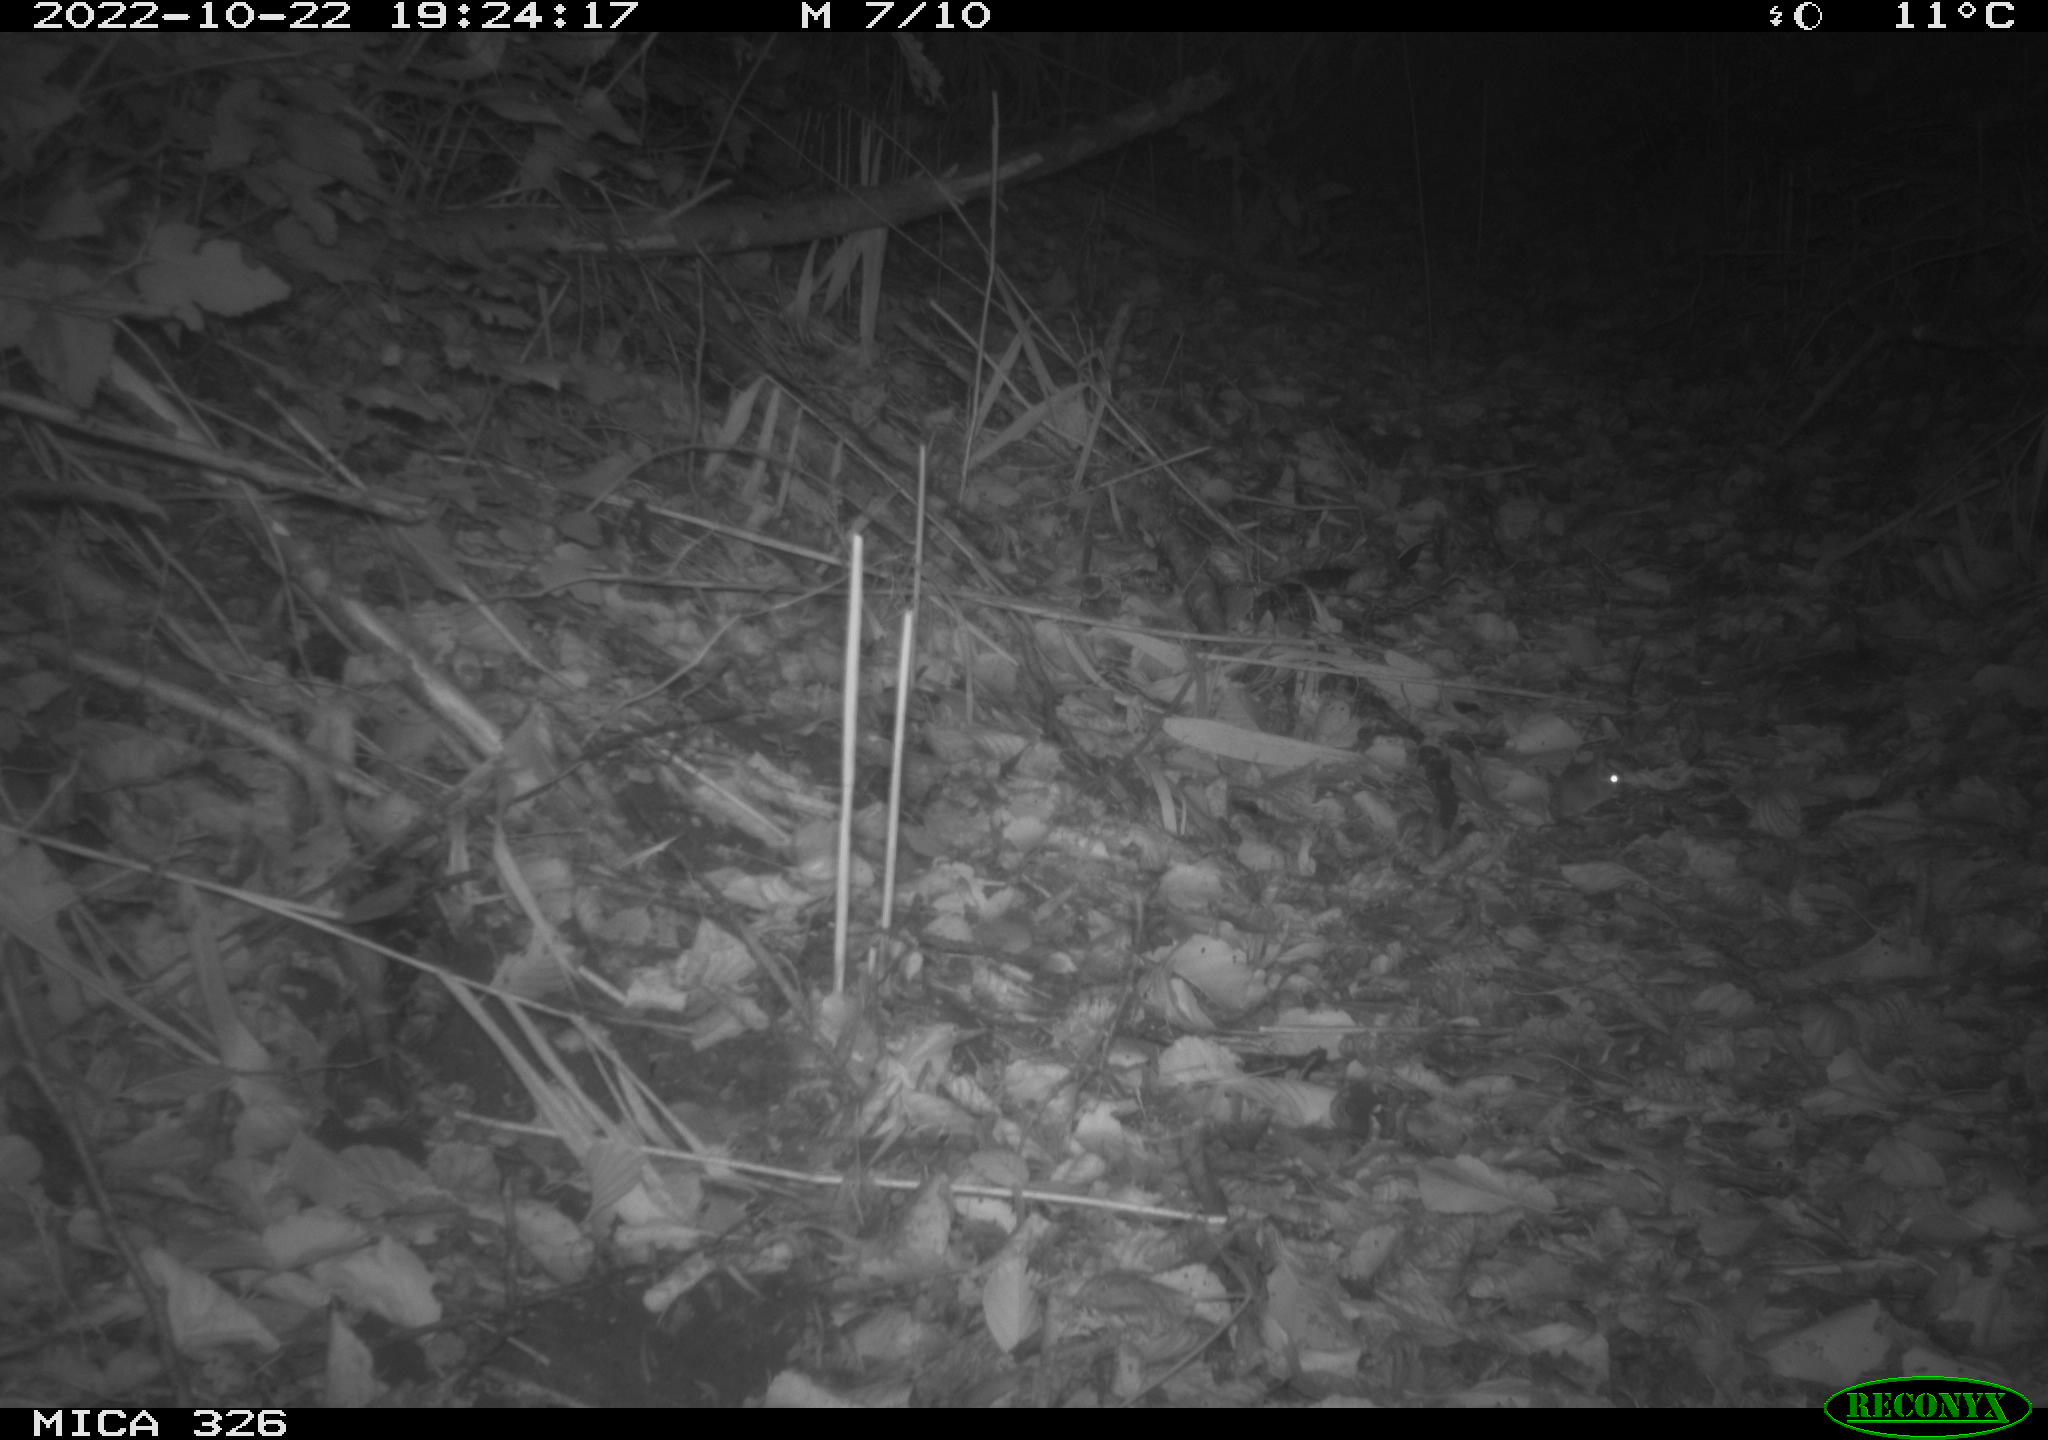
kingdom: Animalia
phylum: Chordata
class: Mammalia
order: Rodentia
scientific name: Rodentia
